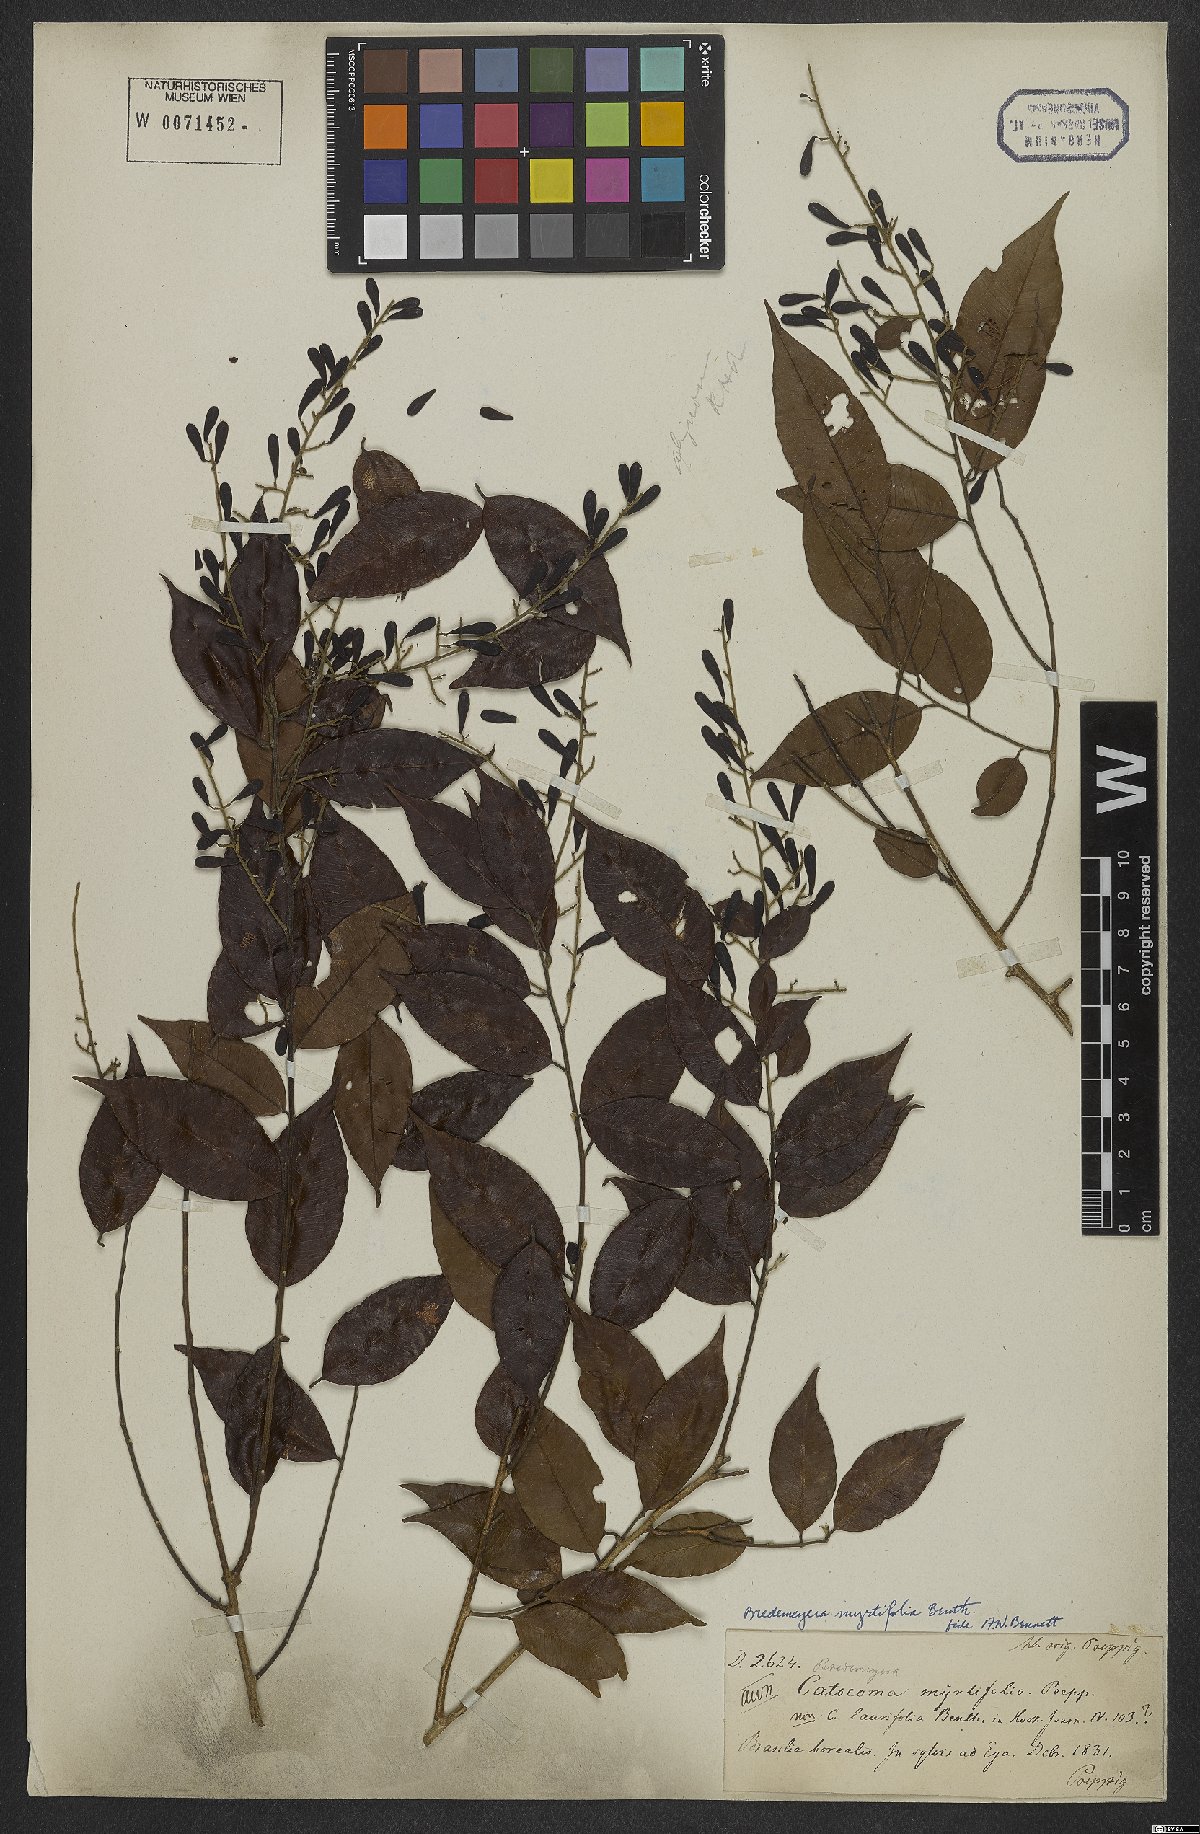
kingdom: Plantae
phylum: Tracheophyta
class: Magnoliopsida
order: Fabales
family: Polygalaceae
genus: Bredemeyera
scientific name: Bredemeyera myrtifolia
